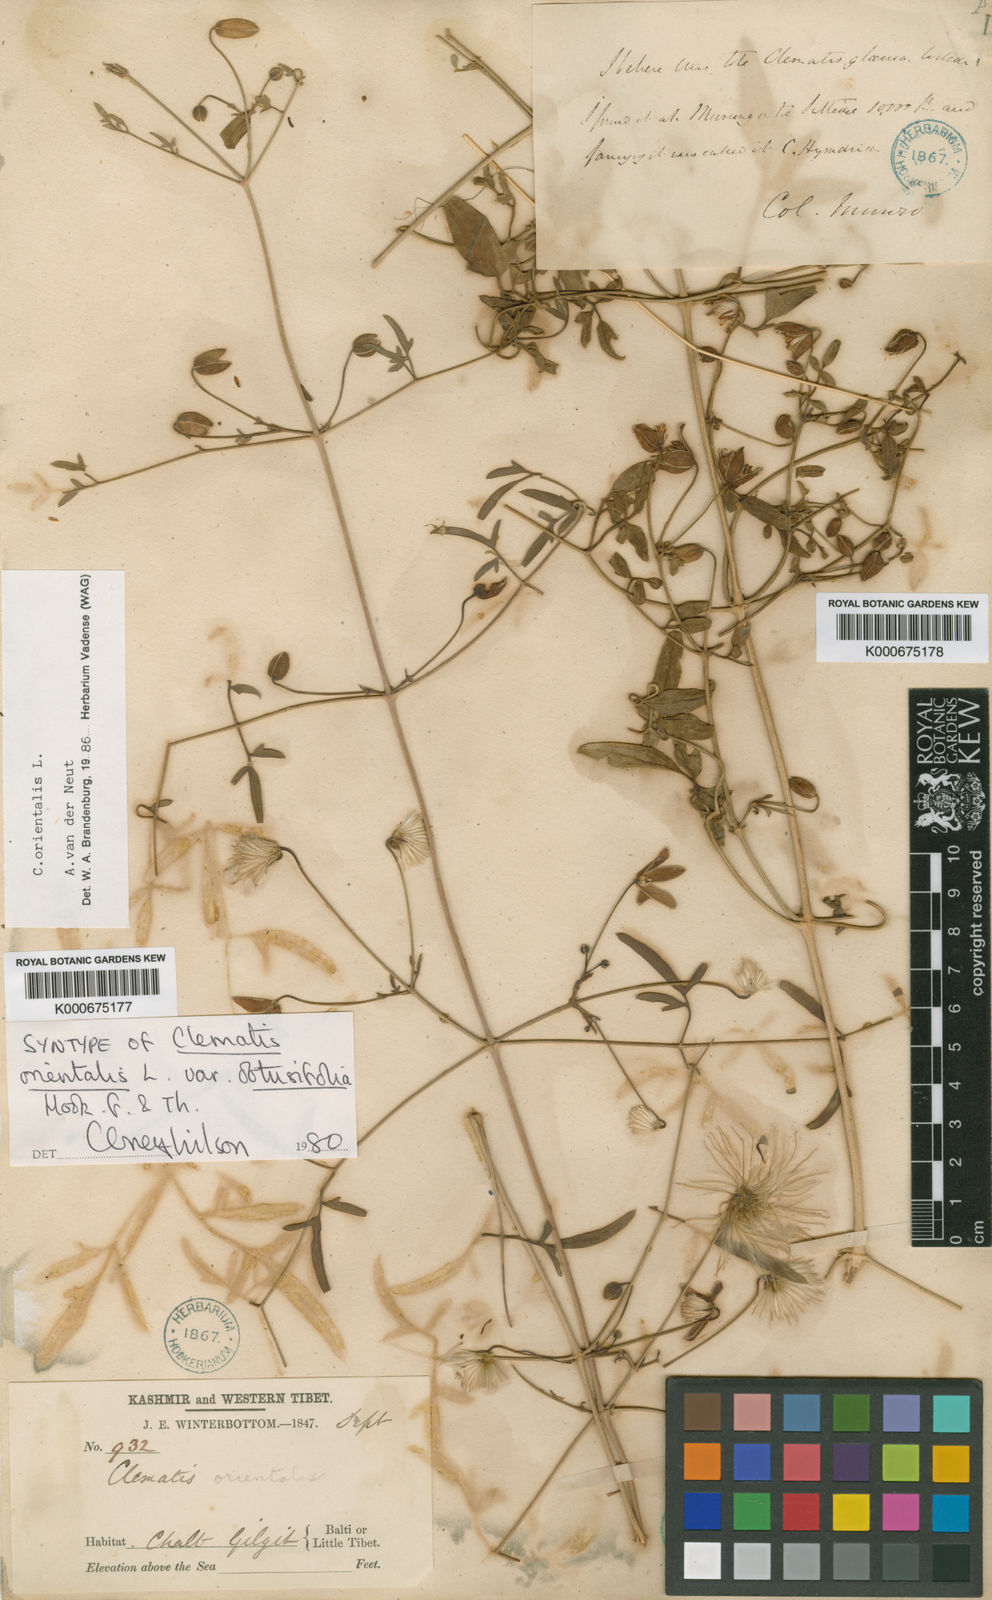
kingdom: Plantae
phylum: Tracheophyta
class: Magnoliopsida
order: Ranunculales
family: Ranunculaceae
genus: Clematis
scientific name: Clematis orientalis
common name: Oriental virgin's-bower
